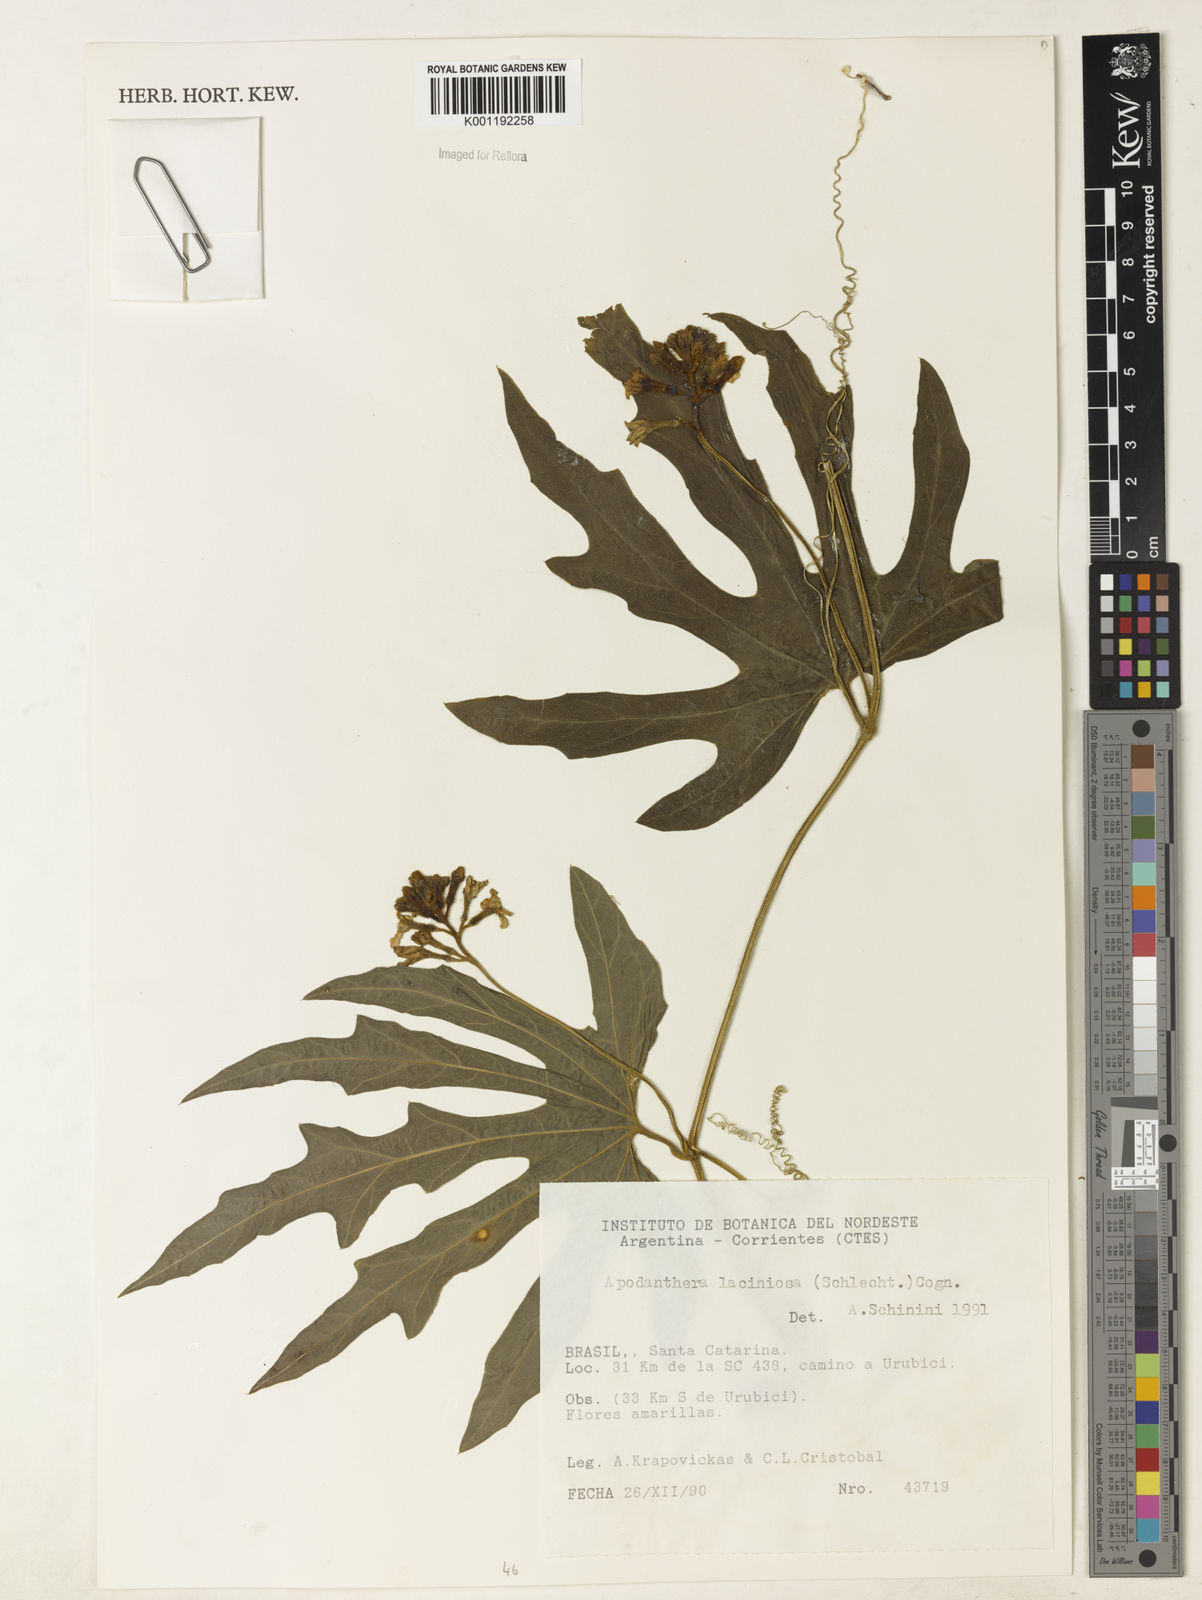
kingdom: Plantae
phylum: Tracheophyta
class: Magnoliopsida
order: Cucurbitales
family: Cucurbitaceae
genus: Apodanthera
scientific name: Apodanthera laciniosa
